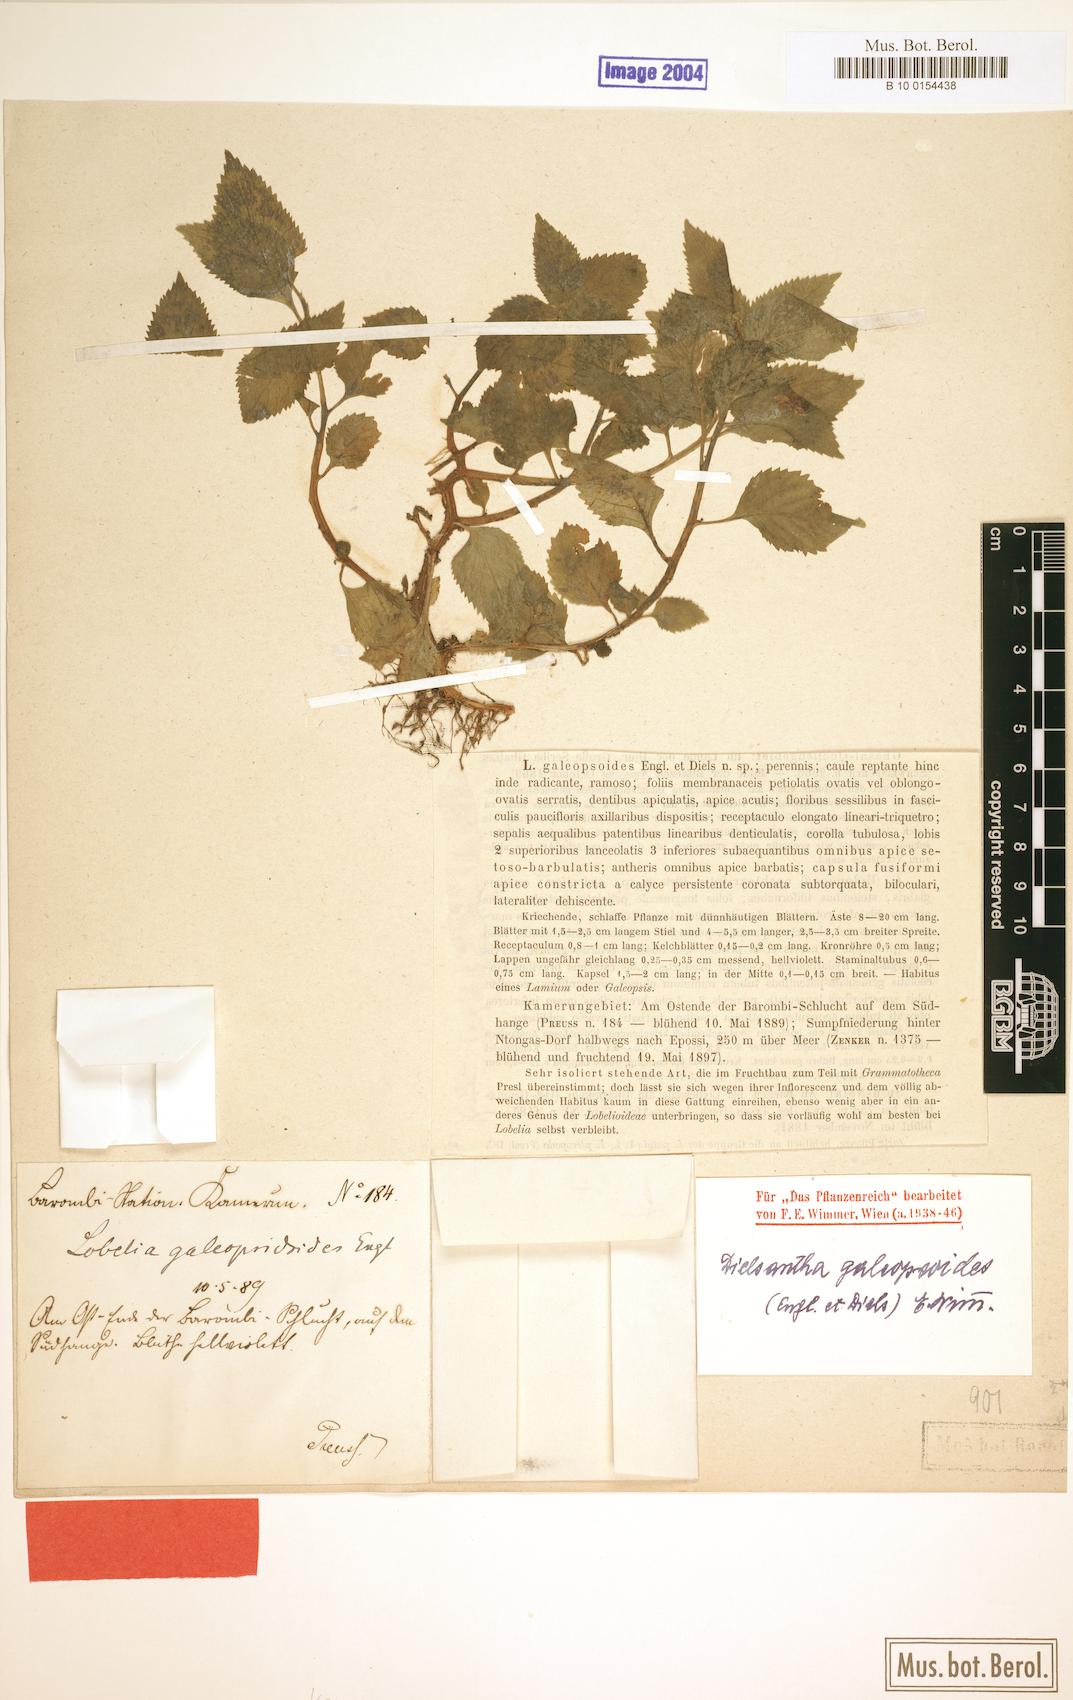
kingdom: Plantae
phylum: Tracheophyta
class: Magnoliopsida
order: Asterales
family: Campanulaceae
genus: Dielsantha
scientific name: Dielsantha galeopsoides
